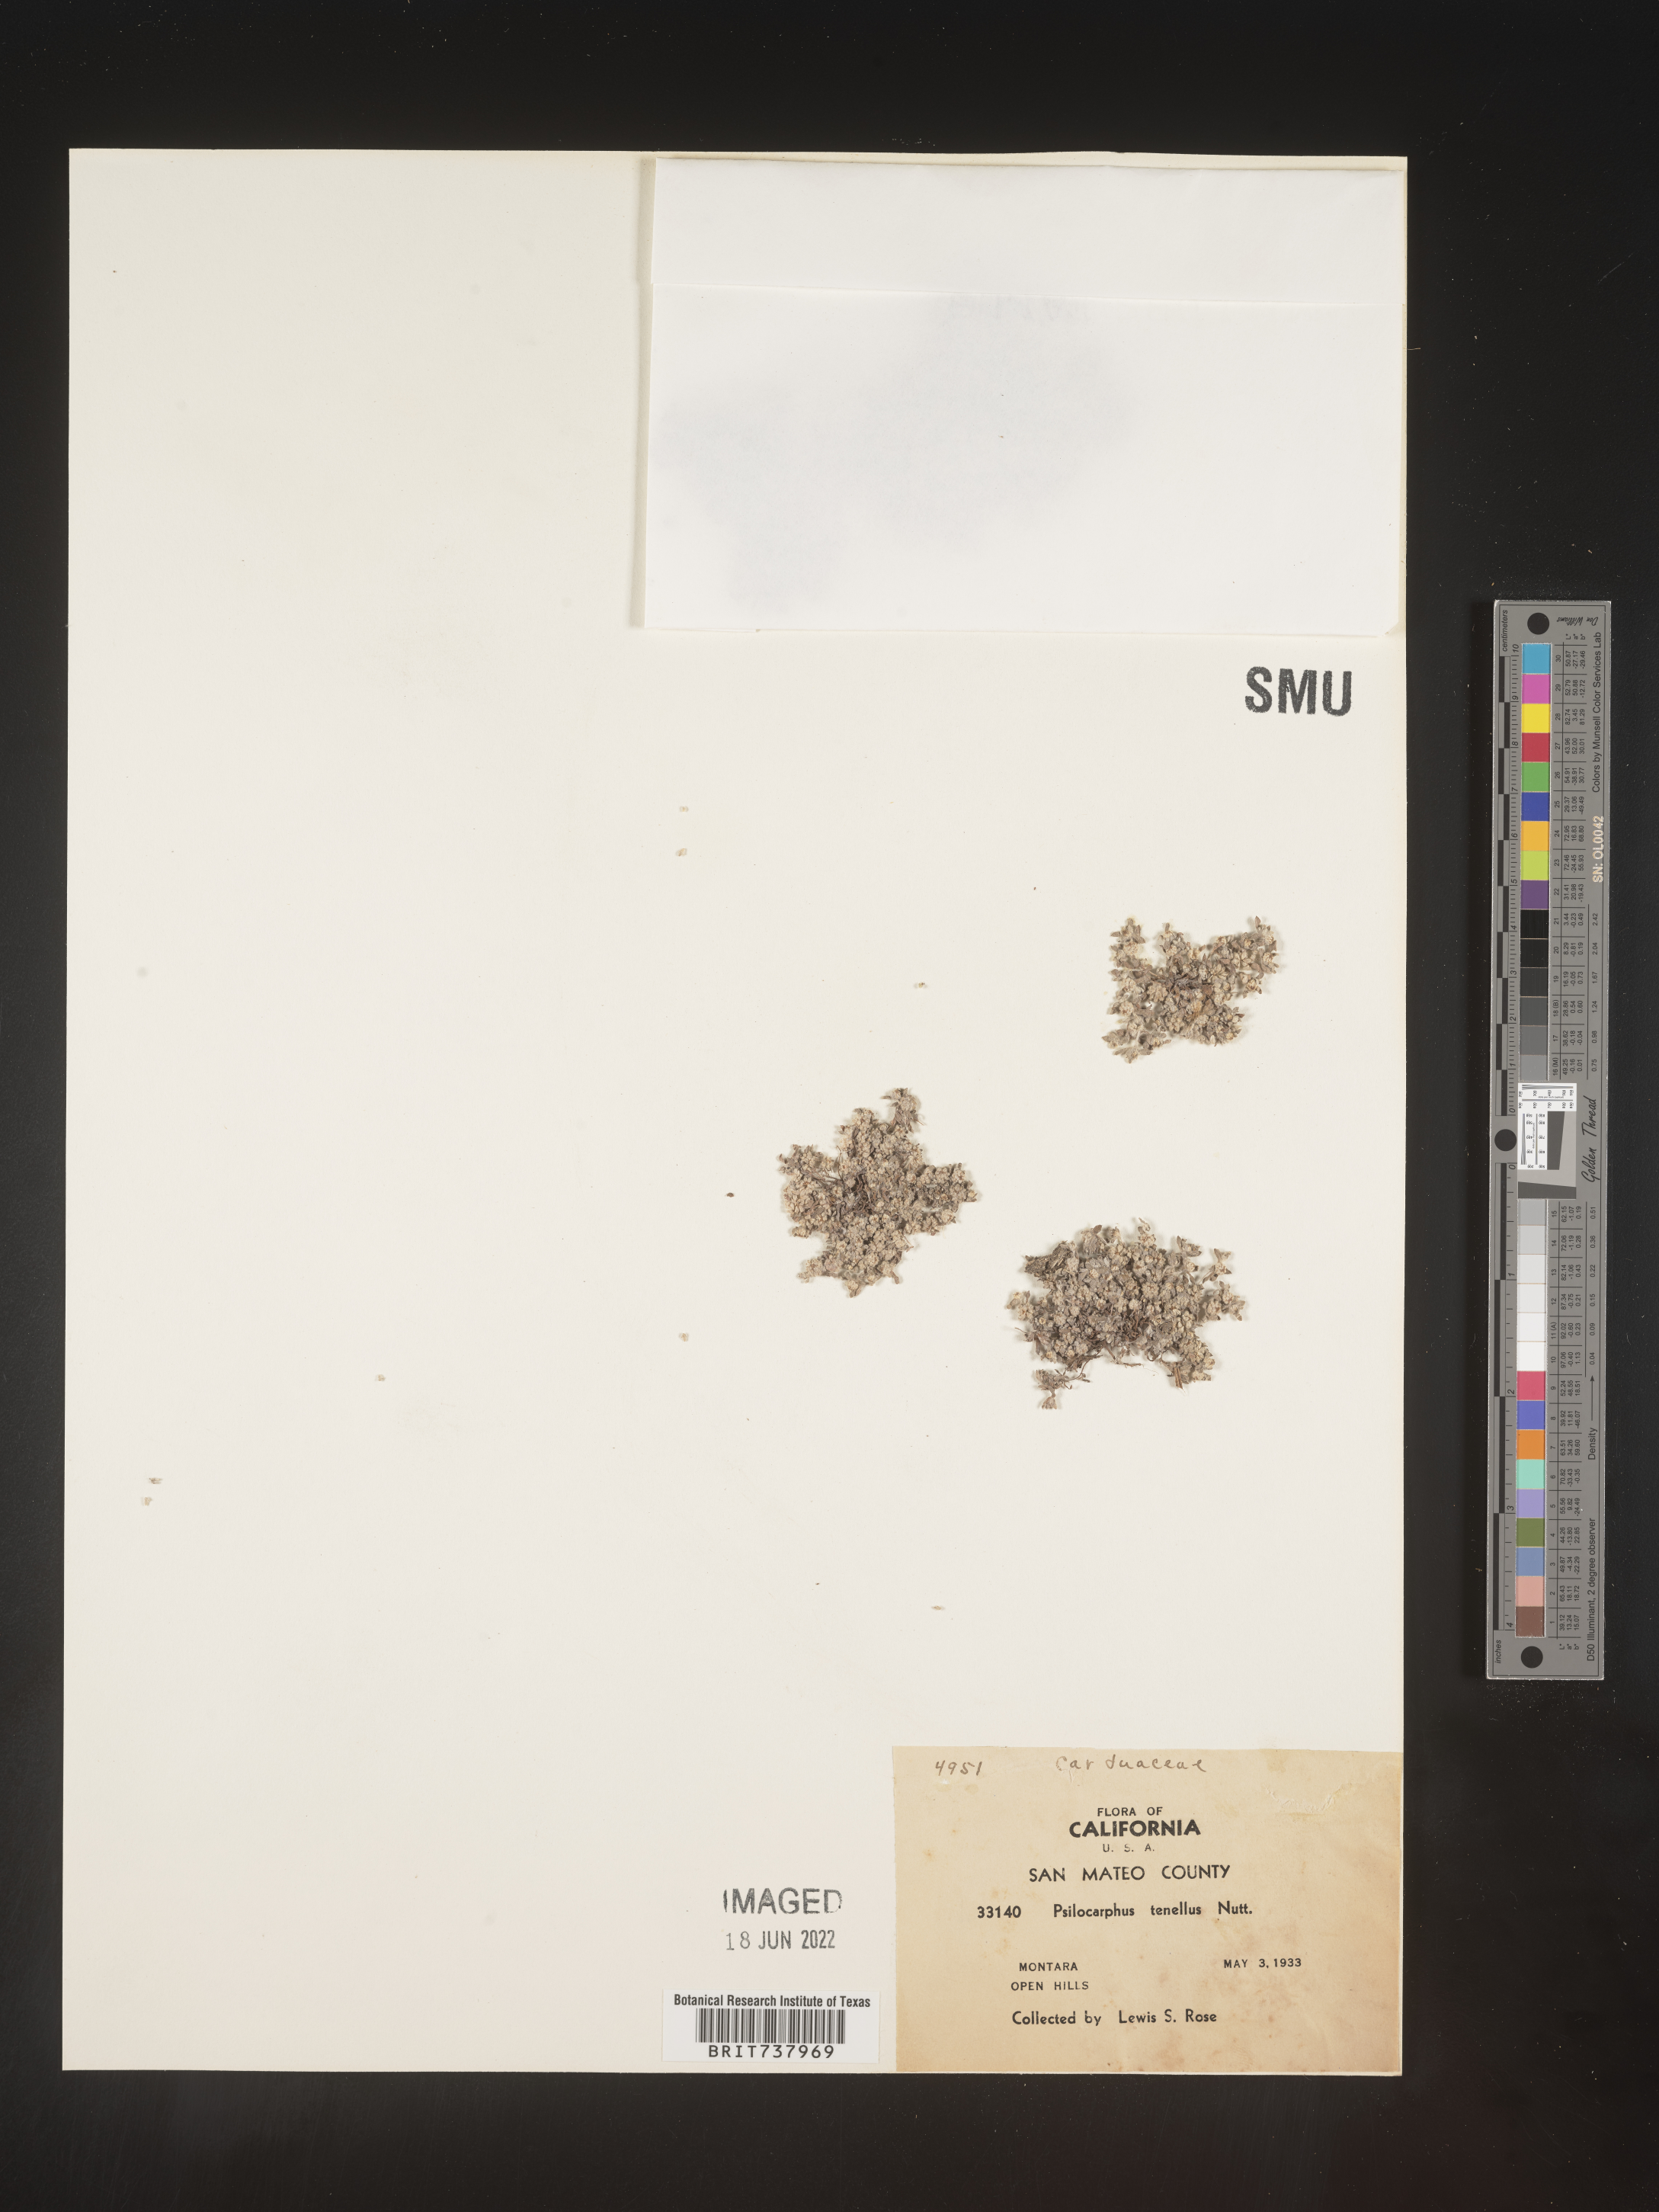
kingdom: Plantae
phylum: Tracheophyta
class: Magnoliopsida
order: Asterales
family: Asteraceae
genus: Psilocarphus
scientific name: Psilocarphus
